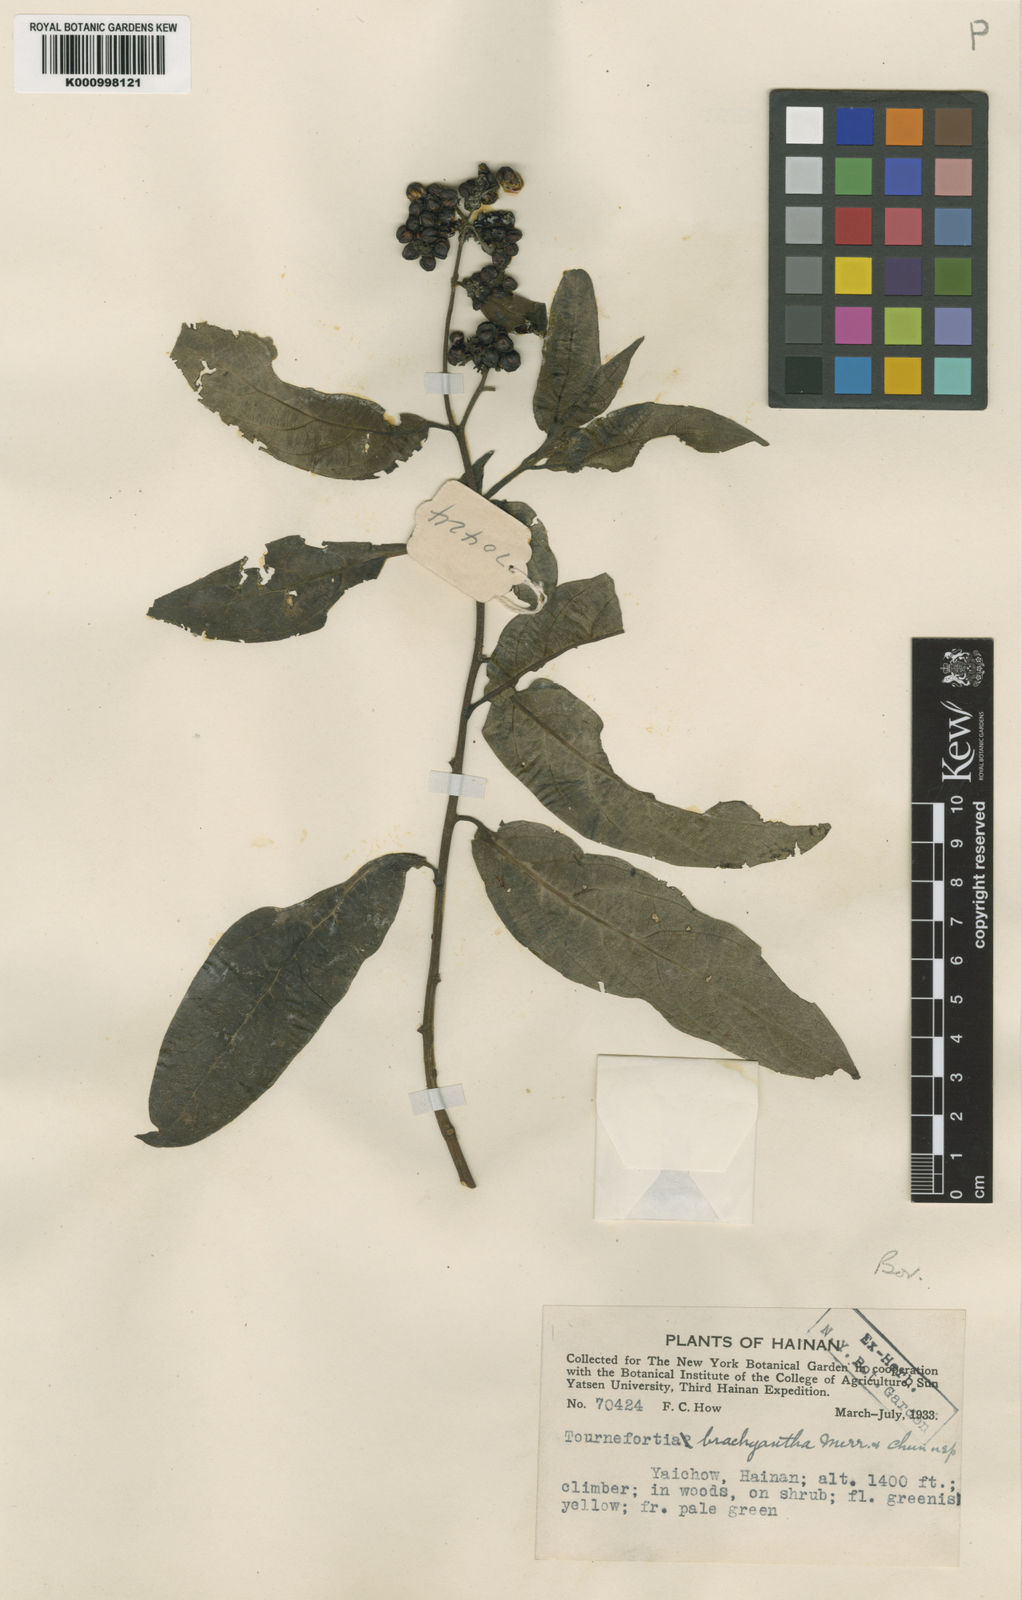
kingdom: Plantae
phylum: Tracheophyta
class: Magnoliopsida
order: Boraginales
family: Heliotropiaceae
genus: Tournefortia
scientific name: Tournefortia montana
